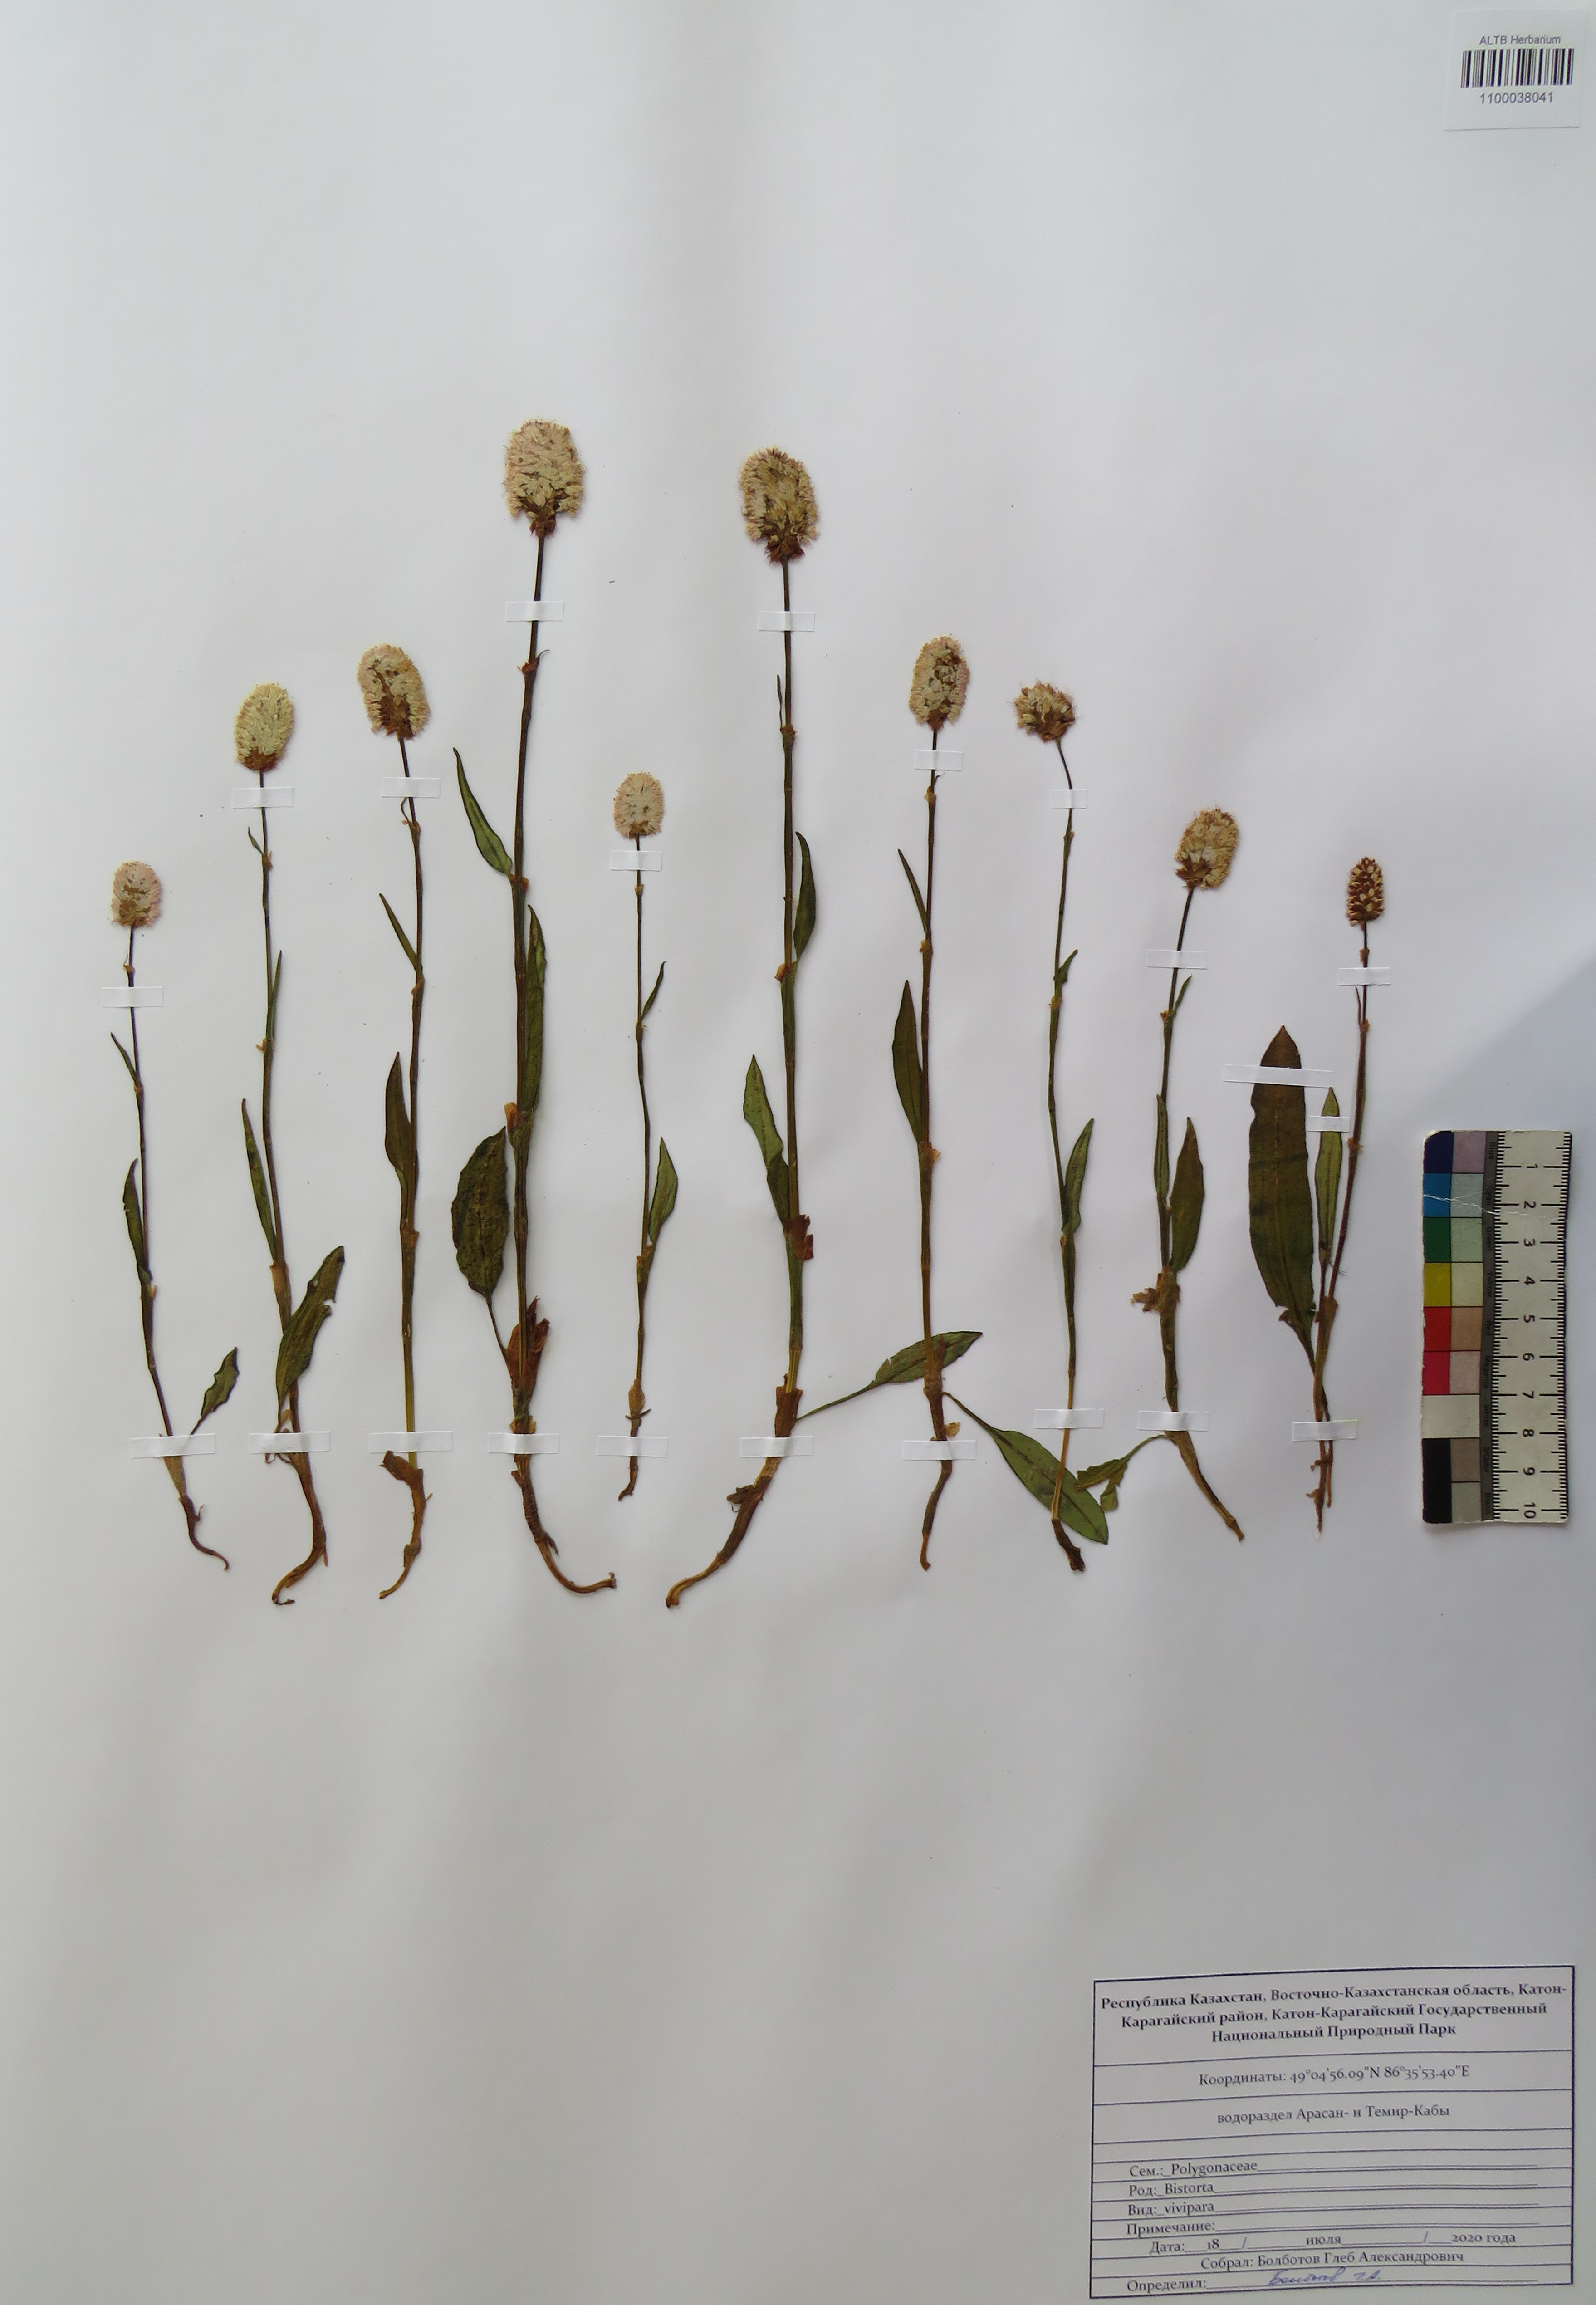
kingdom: Plantae
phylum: Tracheophyta
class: Magnoliopsida
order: Caryophyllales
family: Polygonaceae
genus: Bistorta
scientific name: Bistorta vivipara
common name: Alpine bistort
